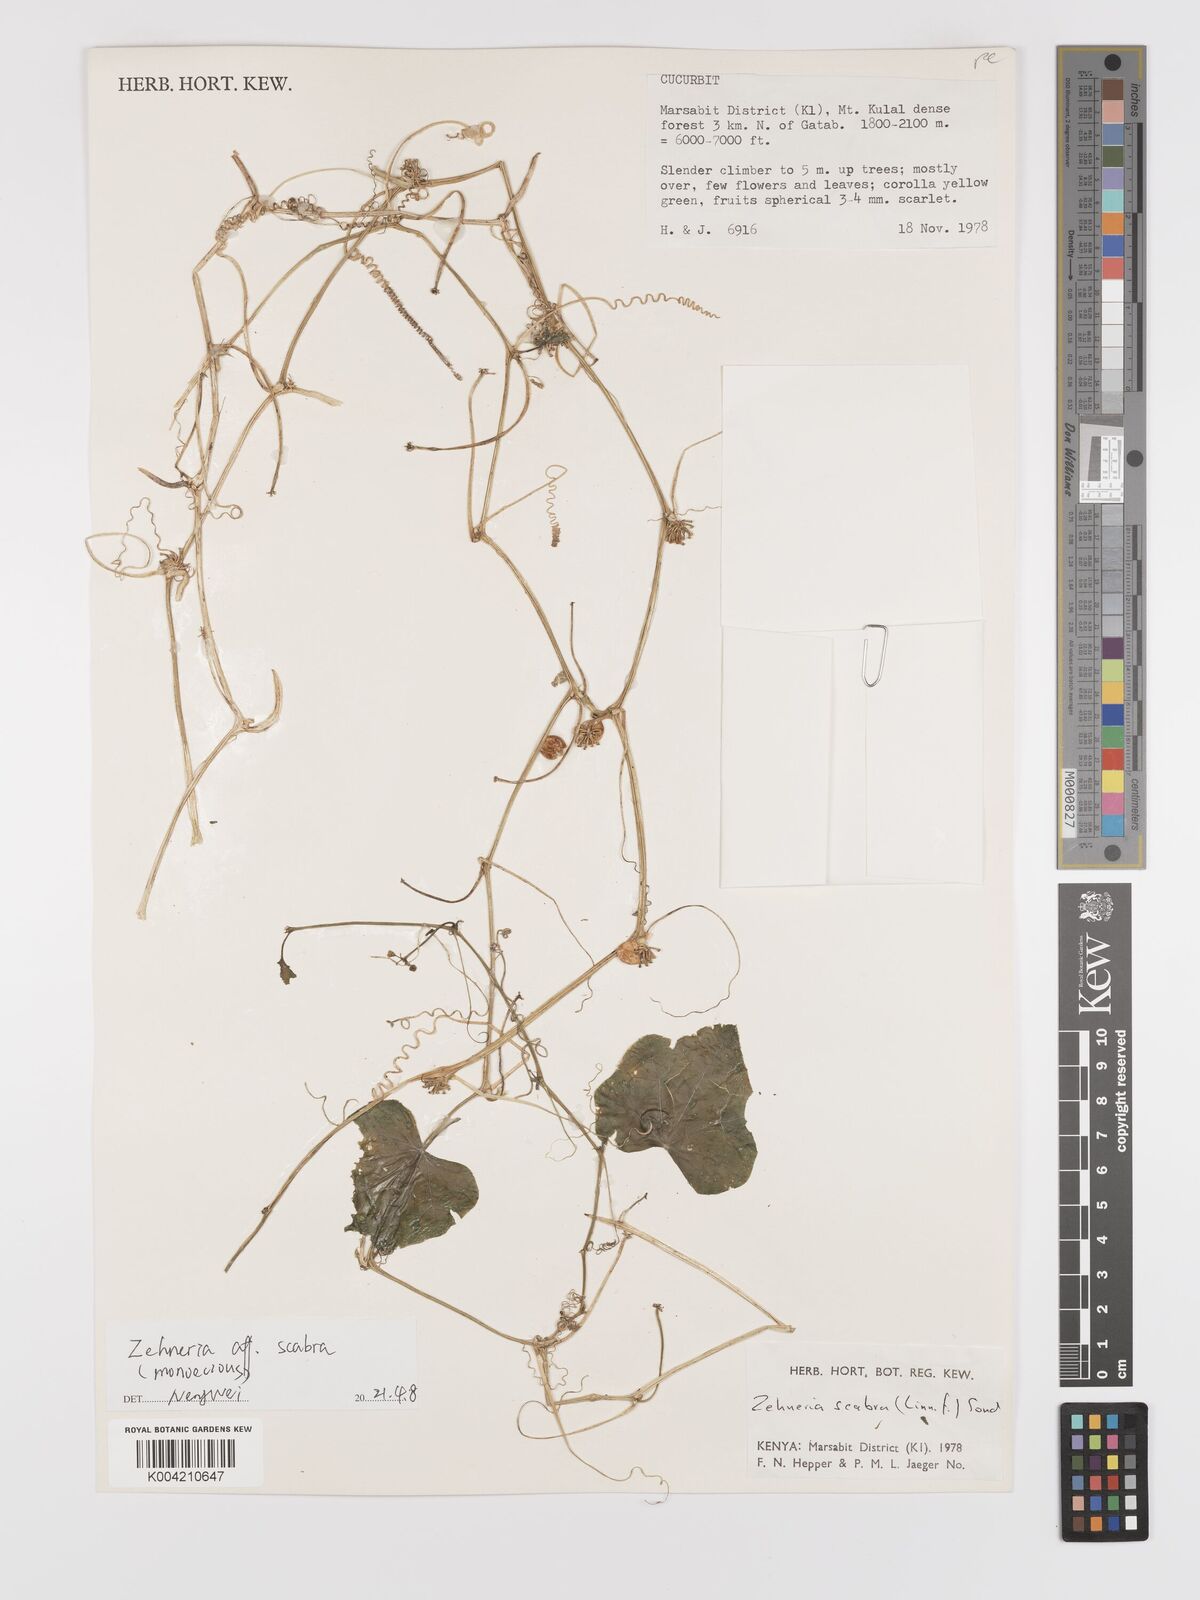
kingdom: Plantae
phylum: Tracheophyta
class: Magnoliopsida
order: Cucurbitales
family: Cucurbitaceae
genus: Zehneria
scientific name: Zehneria
